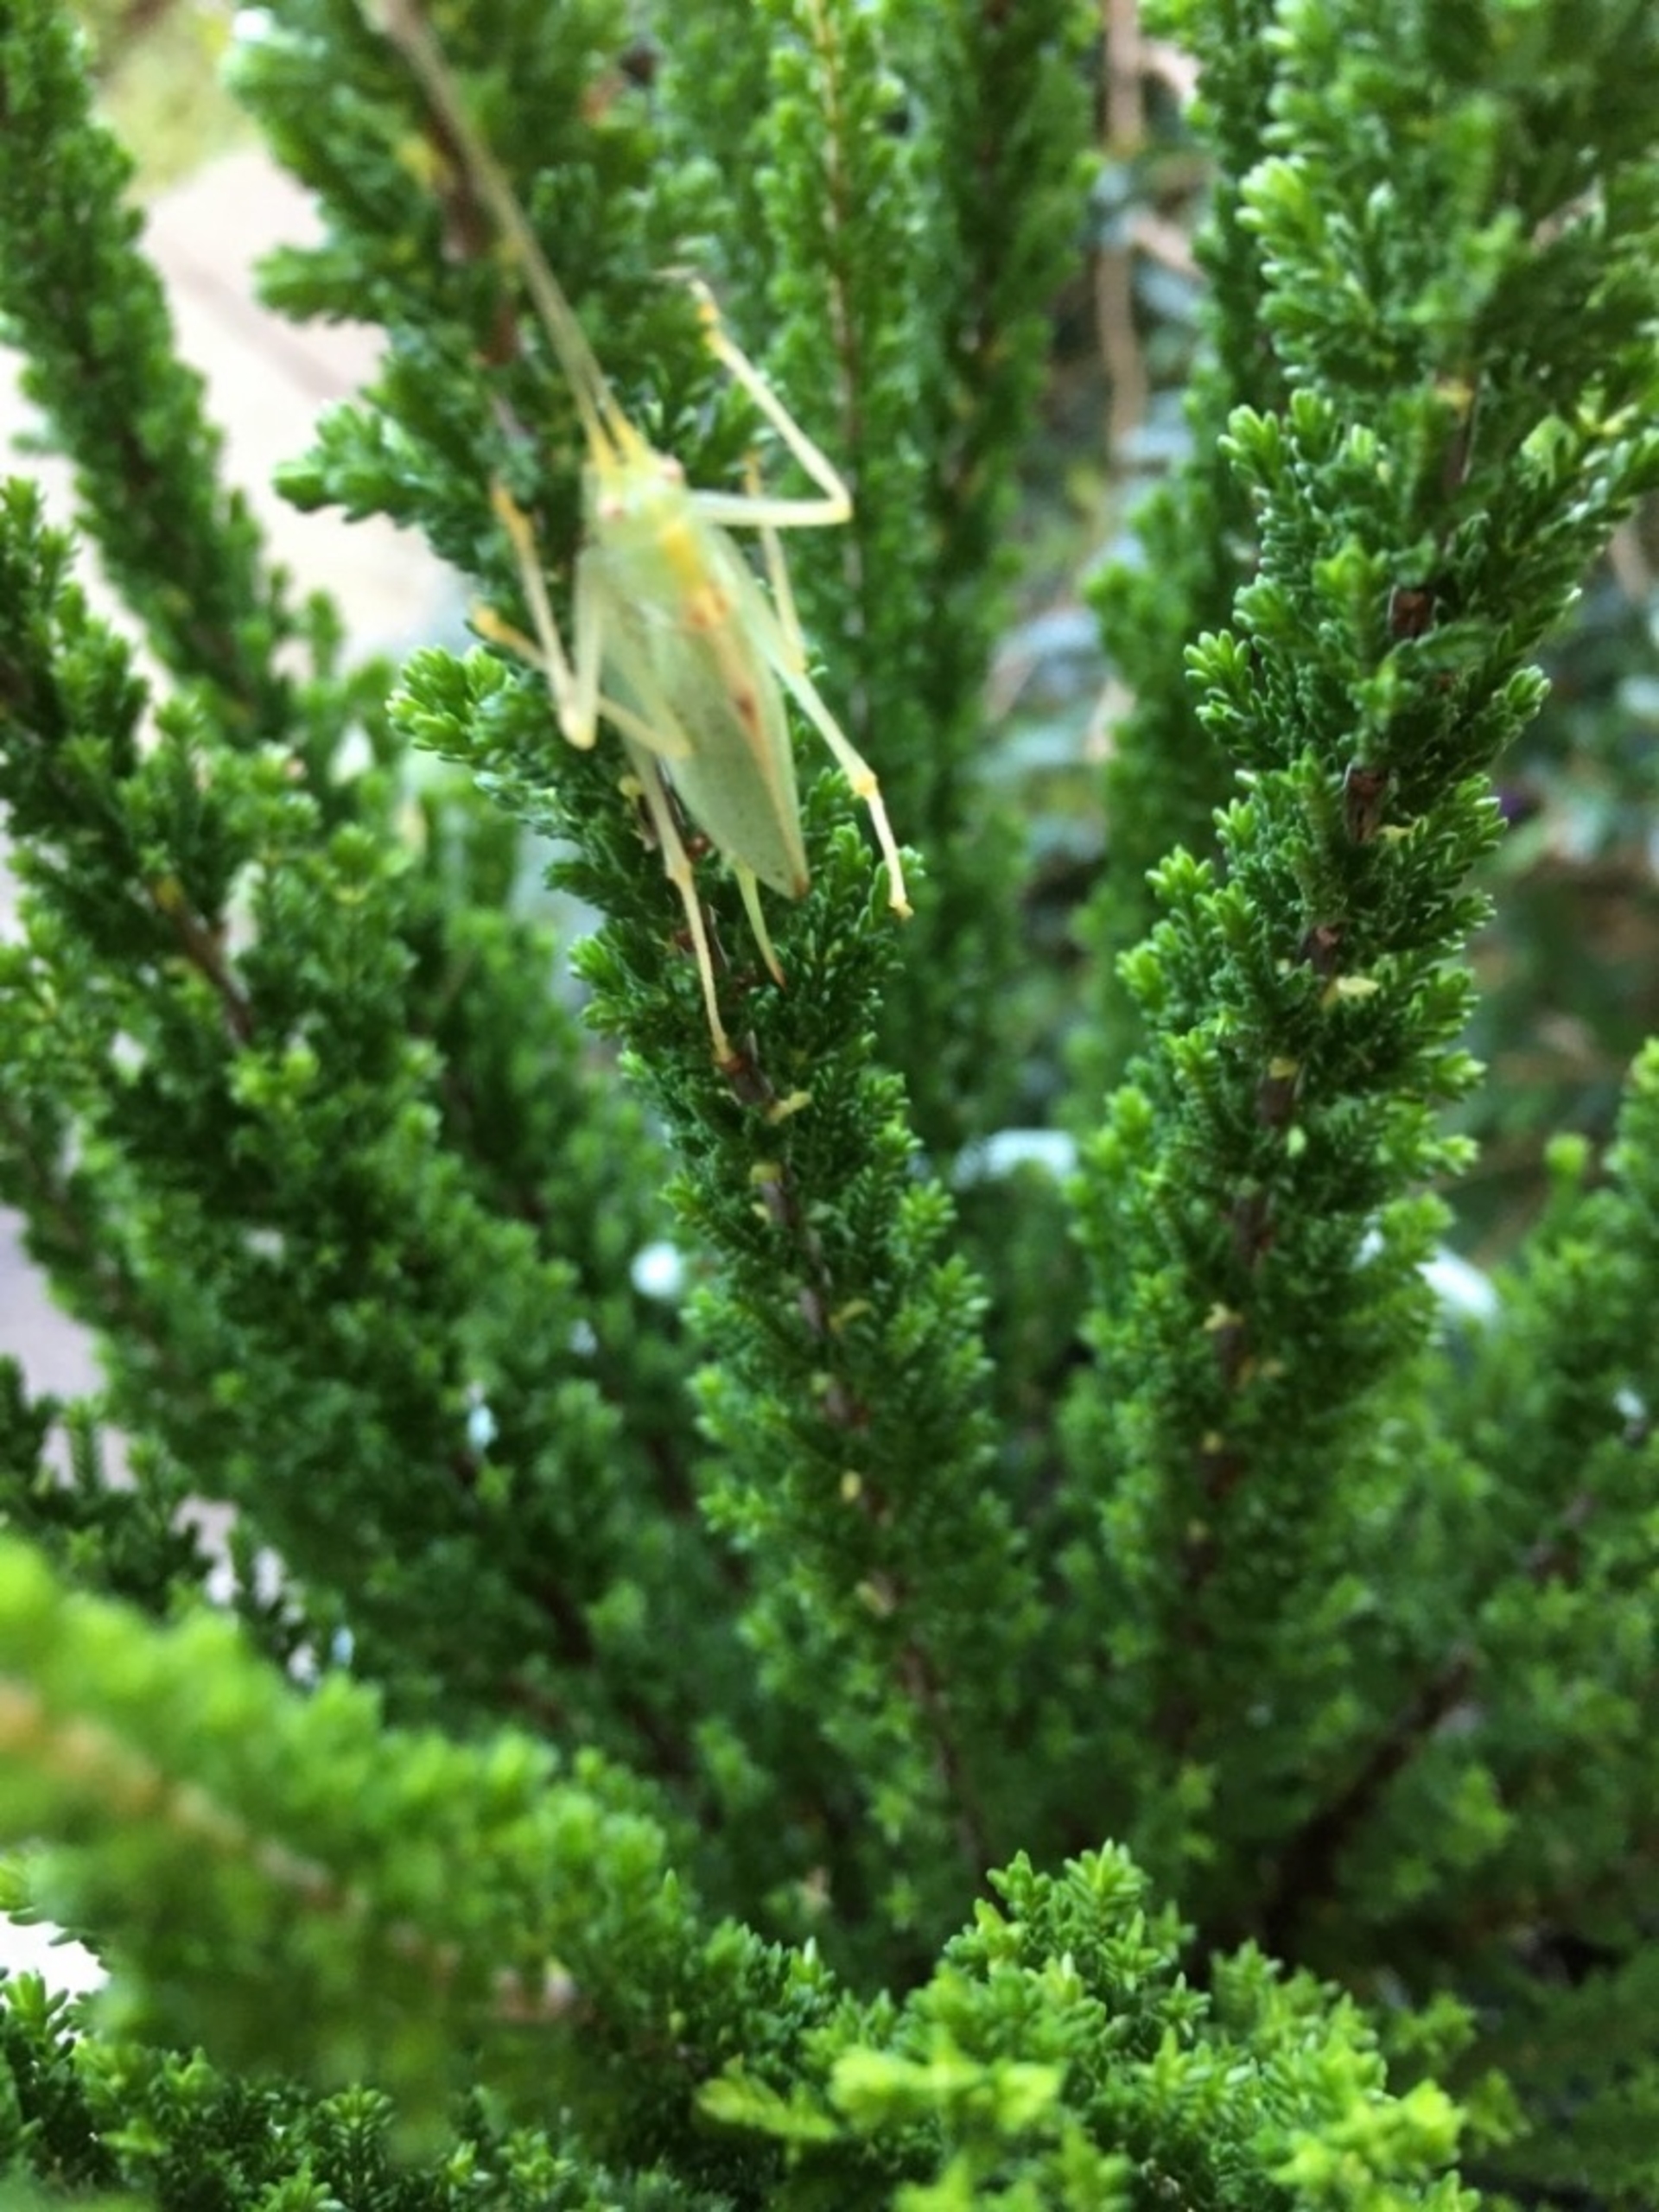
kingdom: Animalia
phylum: Arthropoda
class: Insecta
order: Orthoptera
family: Tettigoniidae
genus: Meconema
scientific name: Meconema thalassinum
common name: Egegræshoppe
